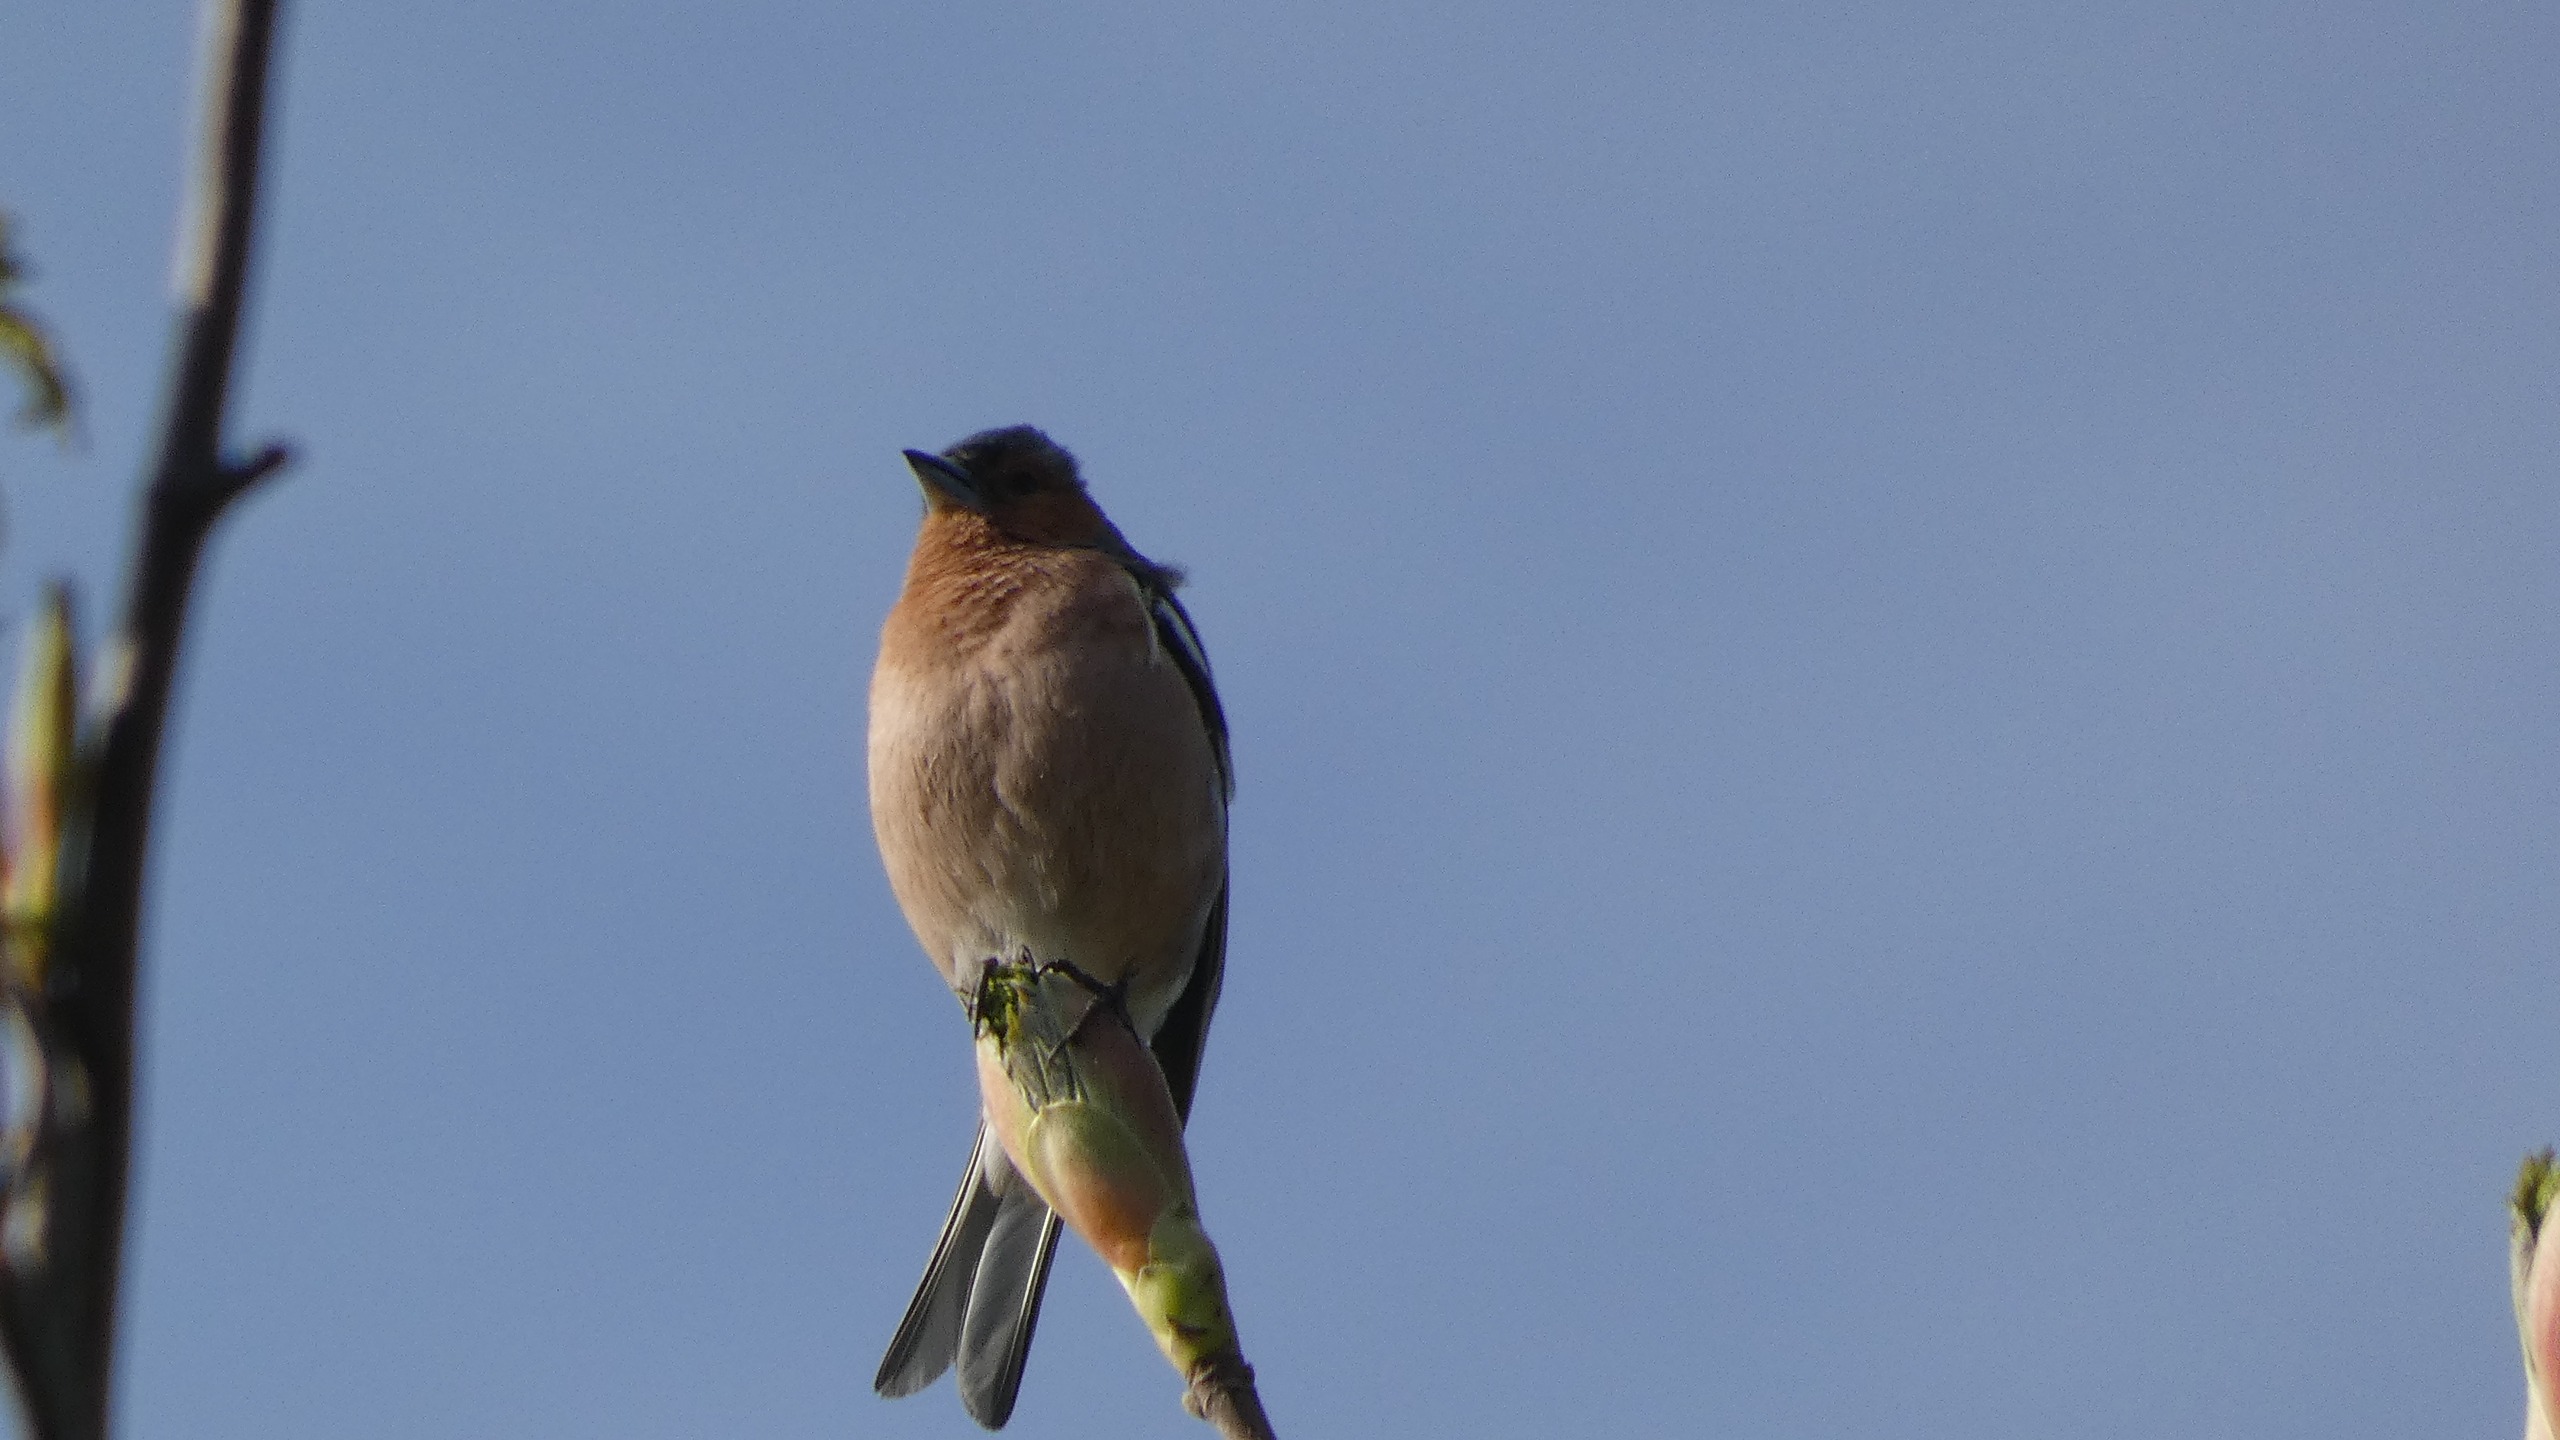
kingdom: Animalia
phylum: Chordata
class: Aves
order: Passeriformes
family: Fringillidae
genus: Fringilla
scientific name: Fringilla coelebs
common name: Bogfinke
